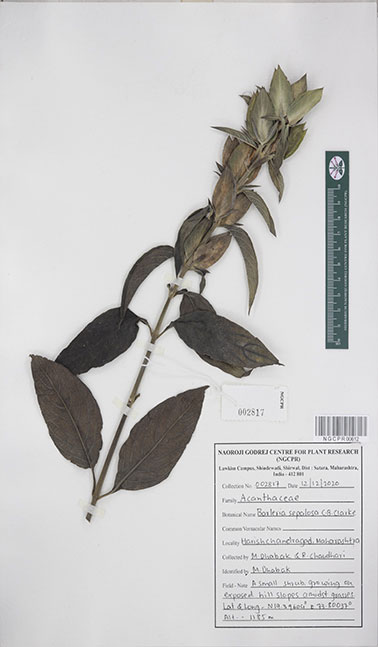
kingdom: Plantae
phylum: Tracheophyta
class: Magnoliopsida
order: Lamiales
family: Acanthaceae
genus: Barleria
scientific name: Barleria lawii
